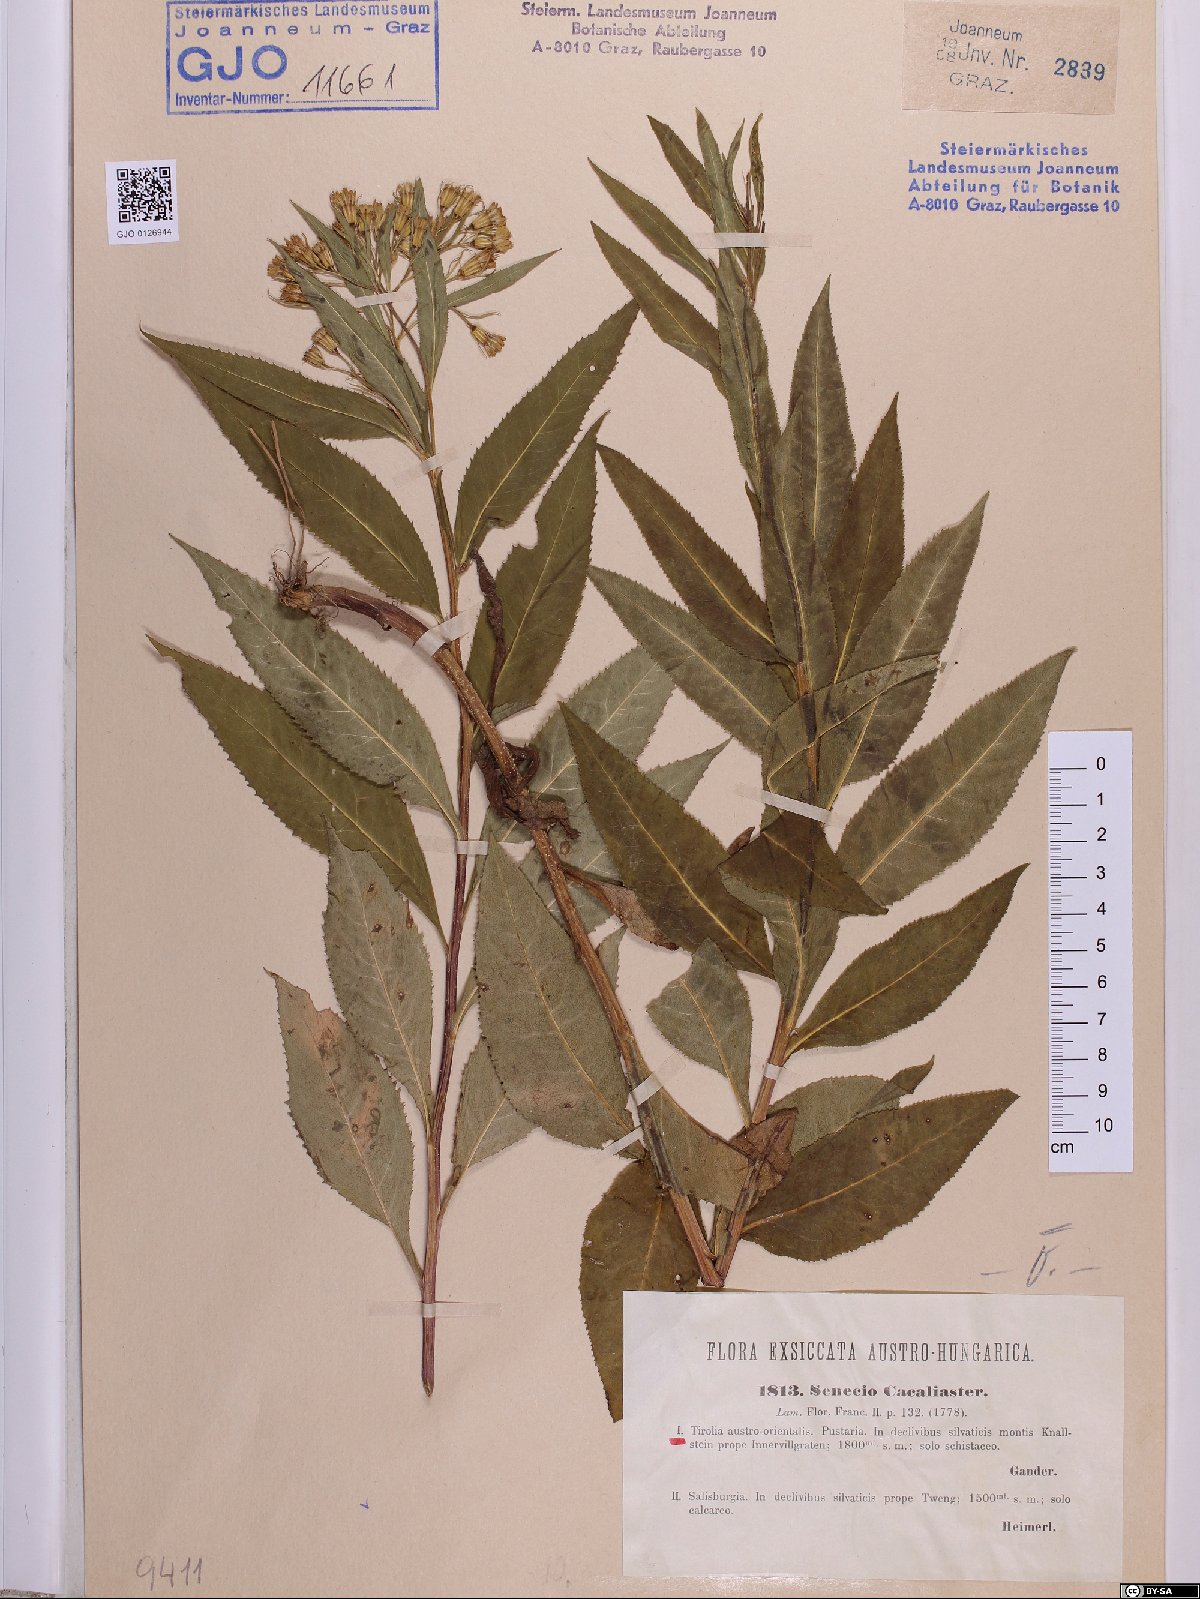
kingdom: Plantae
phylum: Tracheophyta
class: Magnoliopsida
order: Asterales
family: Asteraceae
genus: Senecio
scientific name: Senecio cacaliaster
